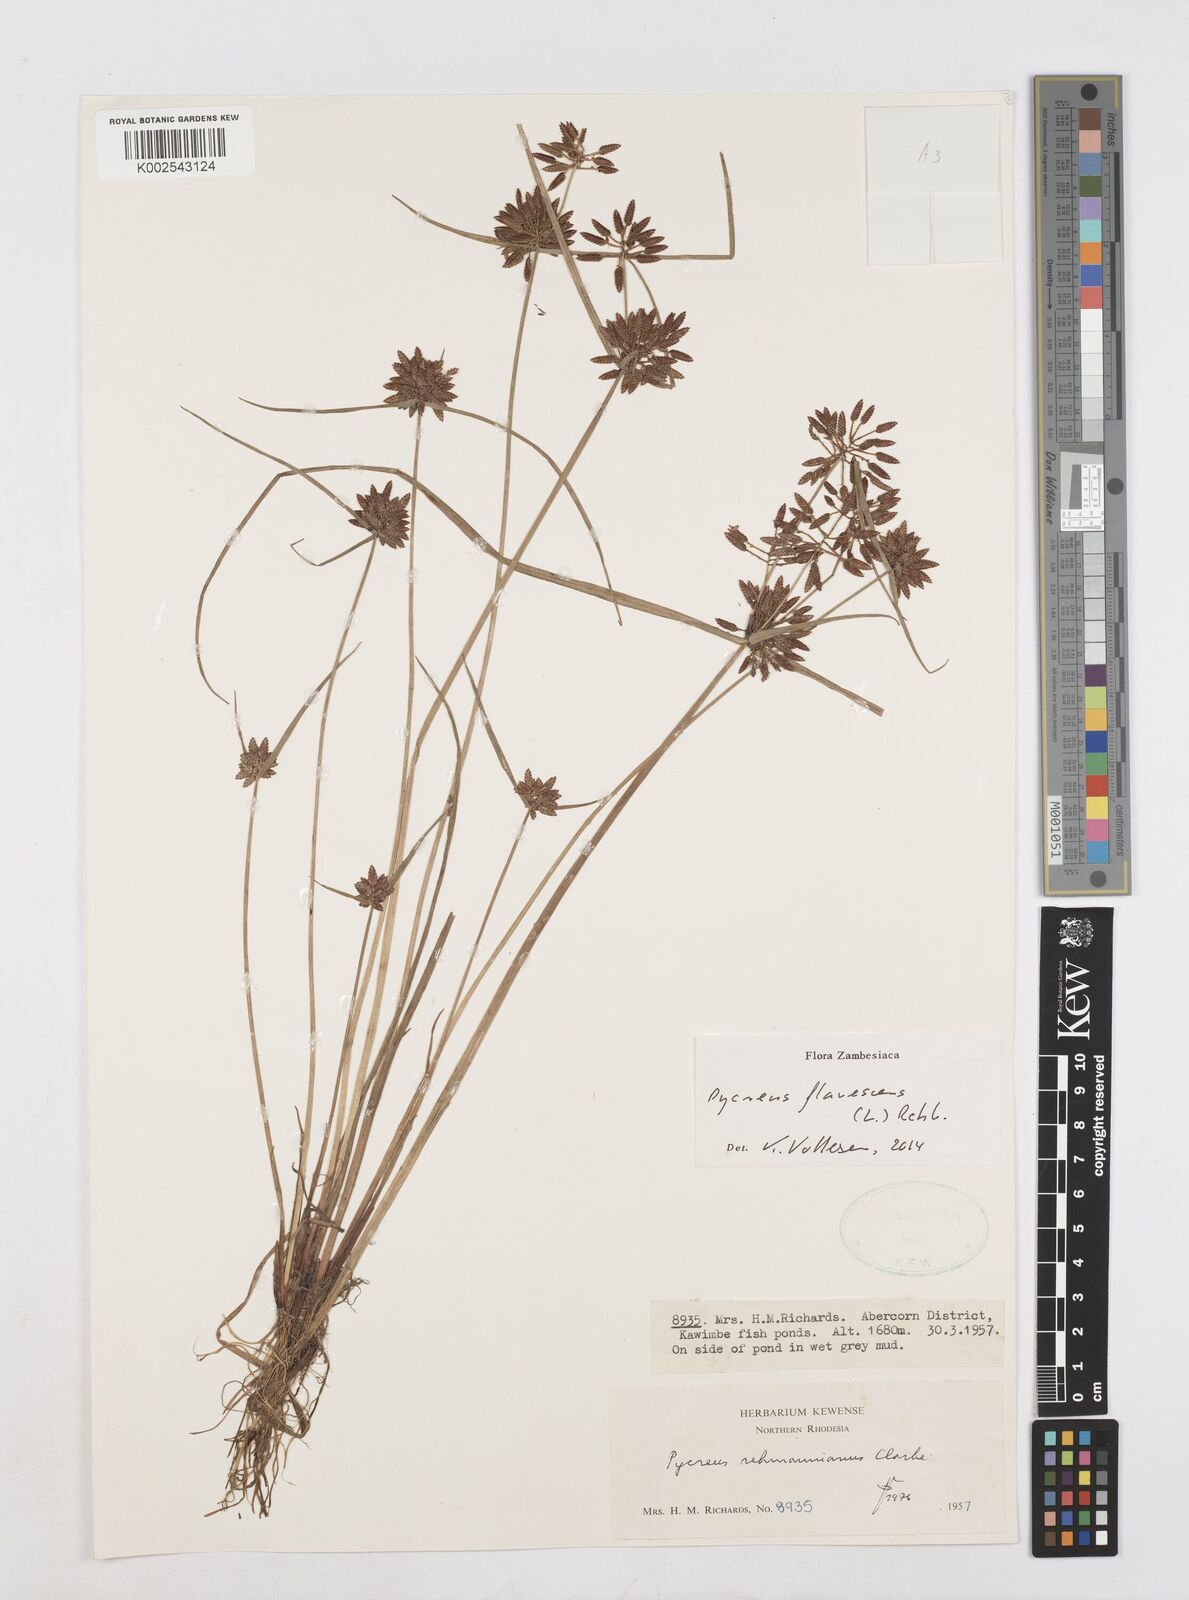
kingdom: Plantae
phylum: Tracheophyta
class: Liliopsida
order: Poales
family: Cyperaceae
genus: Cyperus
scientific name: Cyperus flavescens
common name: Yellow galingale
